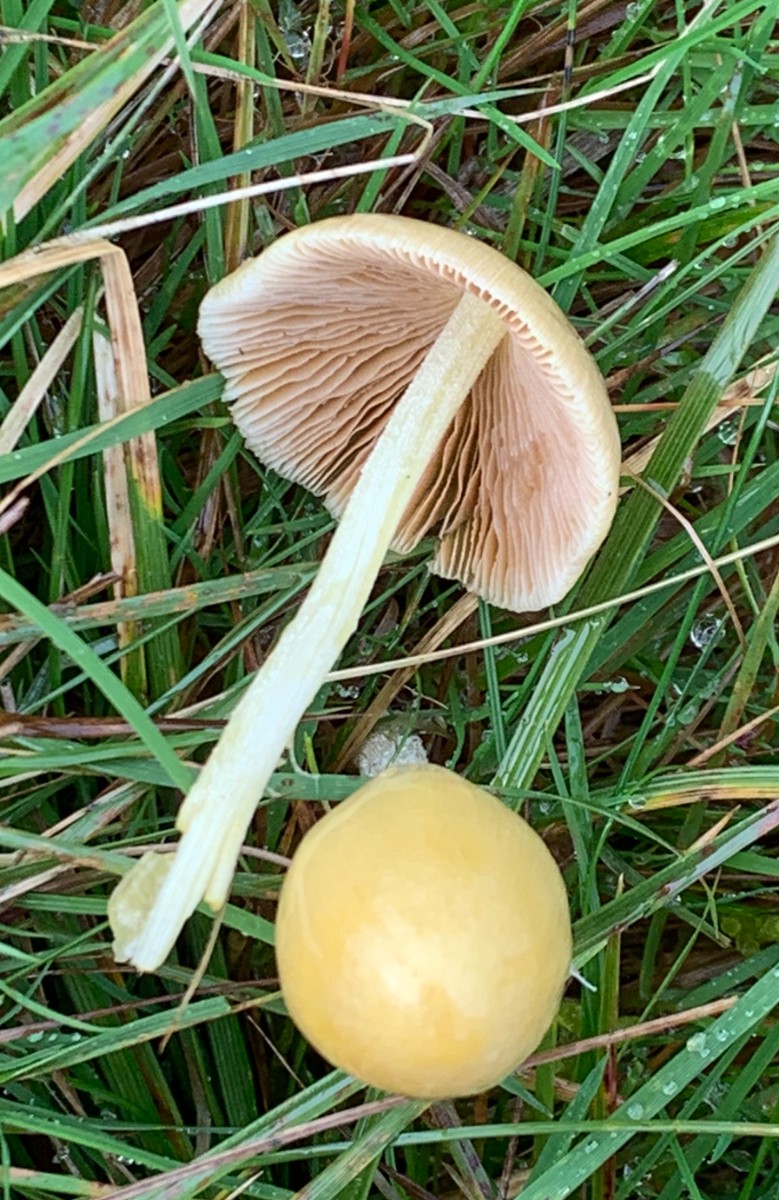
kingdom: Fungi
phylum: Basidiomycota
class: Agaricomycetes
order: Agaricales
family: Bolbitiaceae
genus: Bolbitius
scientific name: Bolbitius titubans
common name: almindelig gulhat
